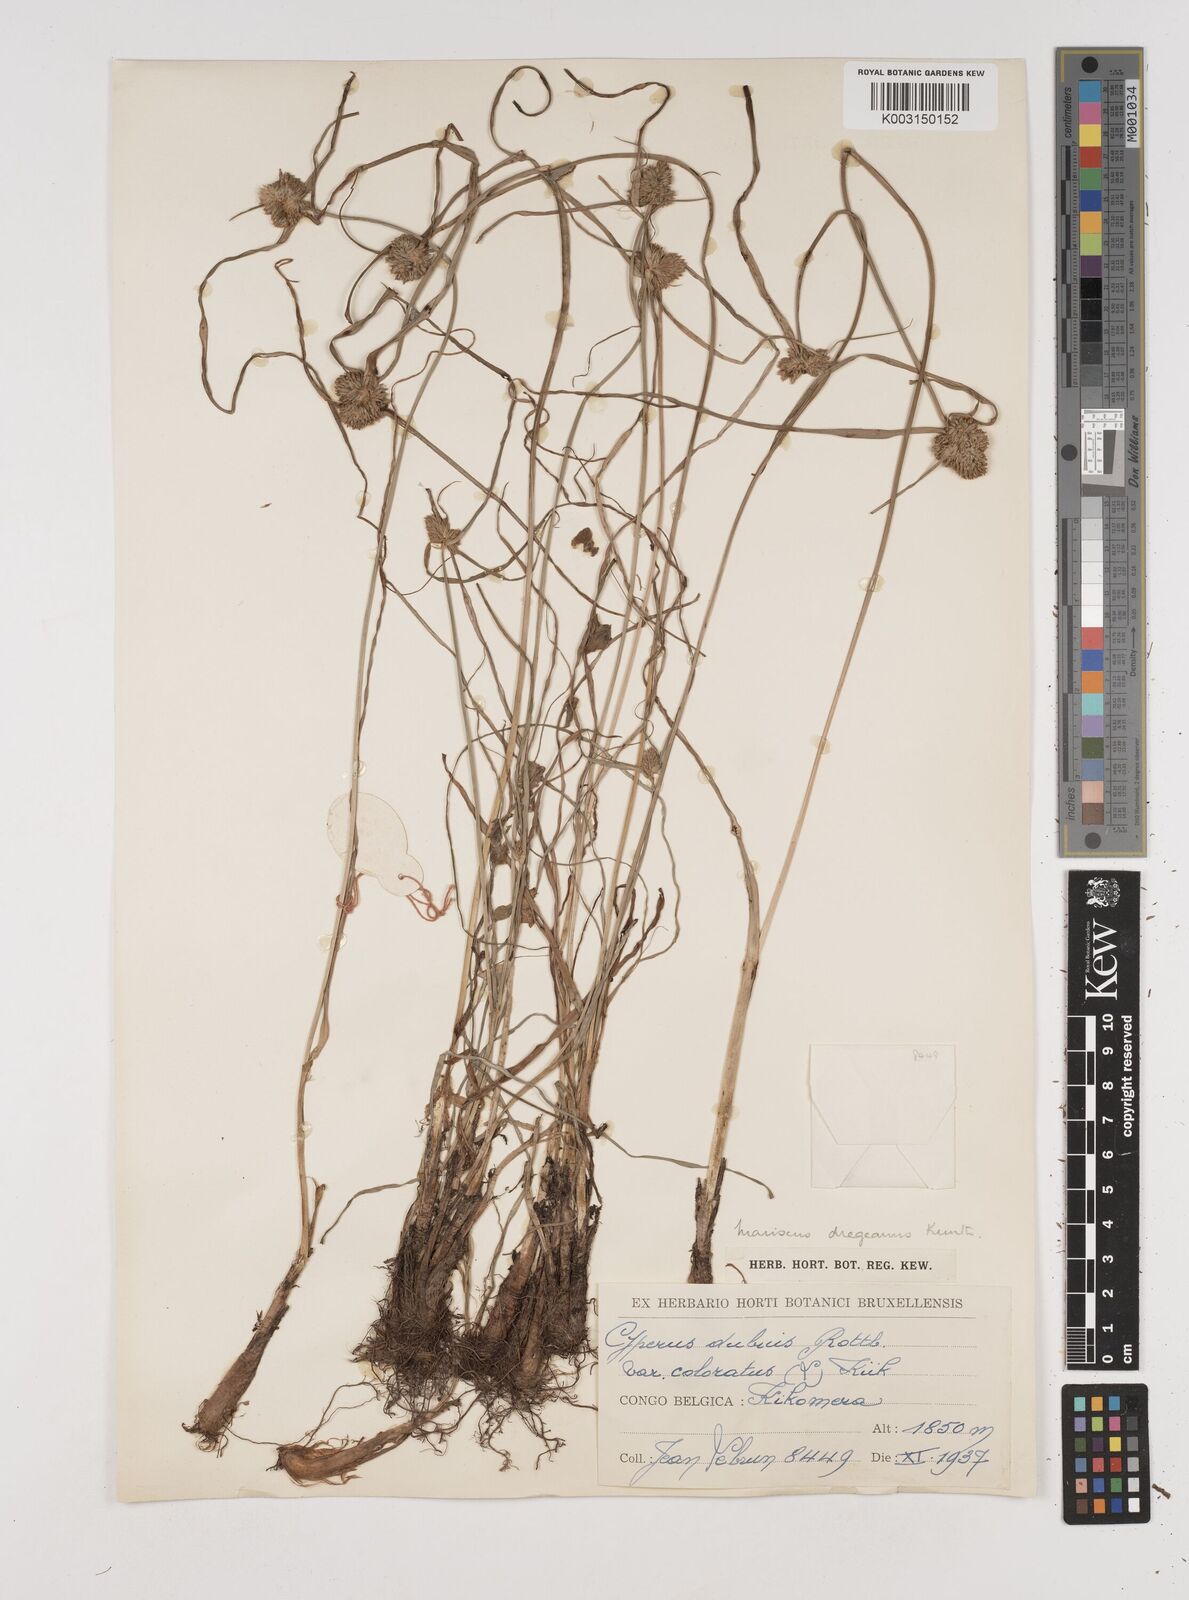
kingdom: Plantae
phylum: Tracheophyta
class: Liliopsida
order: Poales
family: Cyperaceae
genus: Cyperus
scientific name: Cyperus dubius
